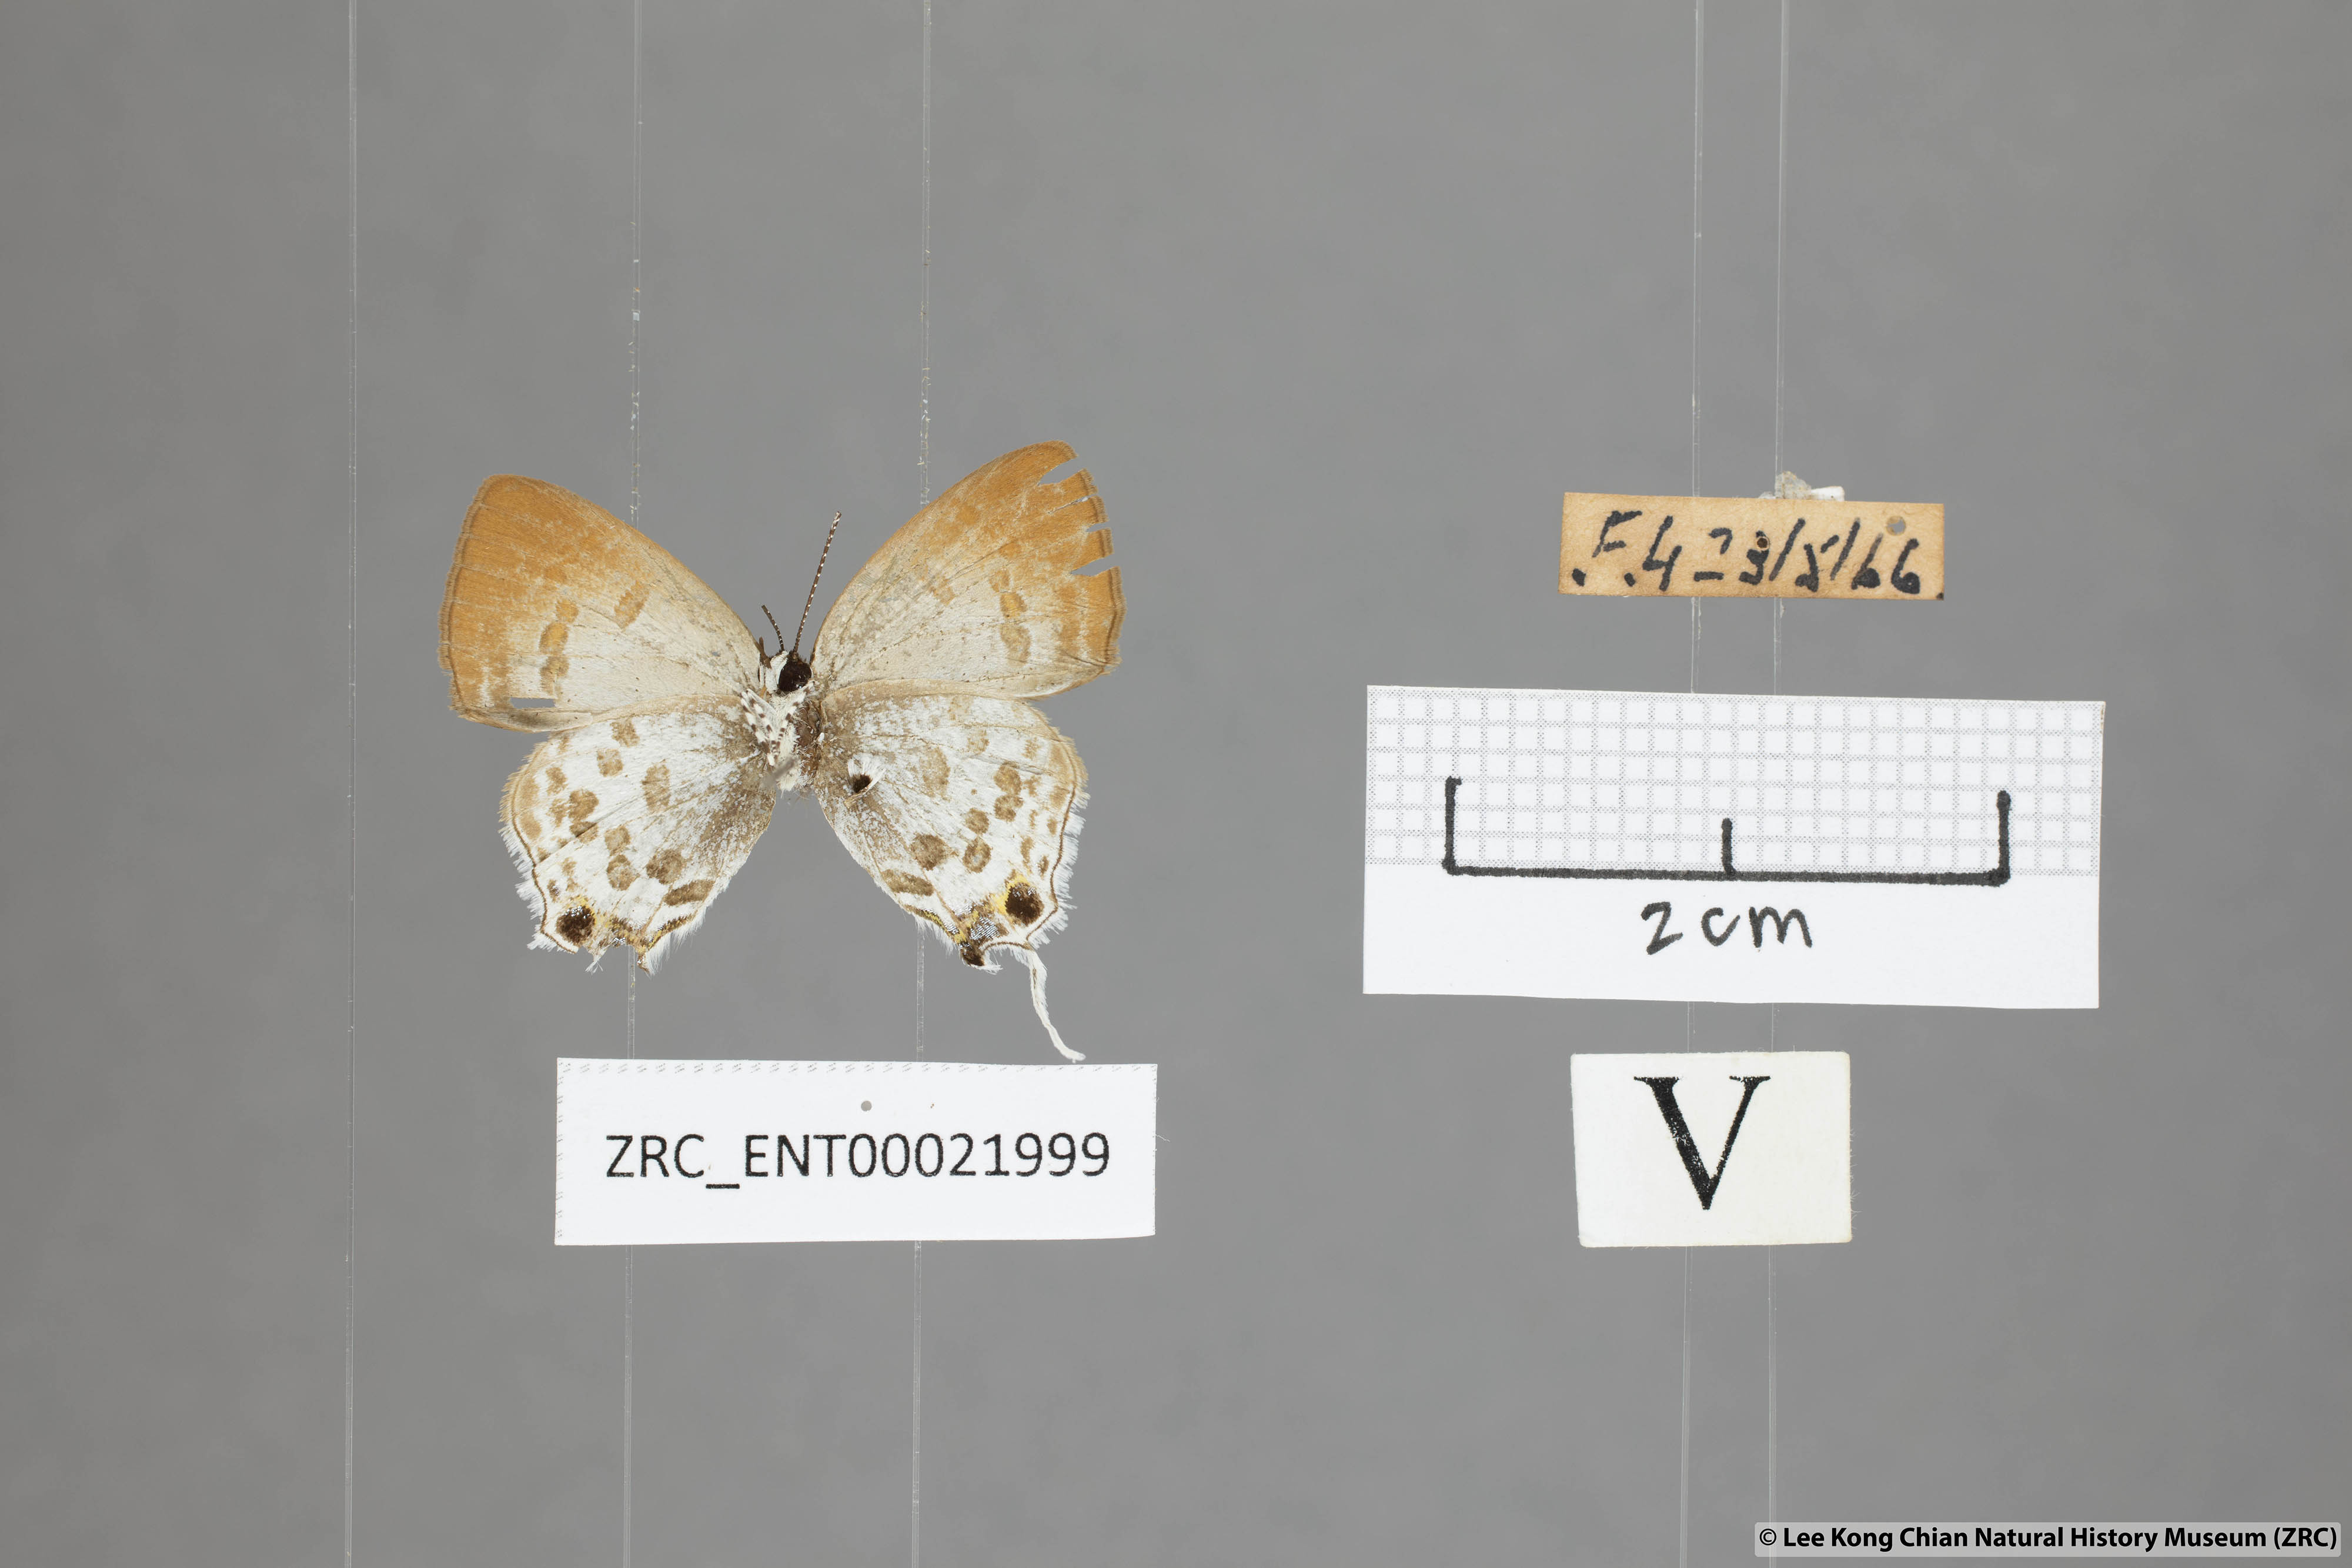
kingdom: Animalia
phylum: Arthropoda
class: Insecta
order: Lepidoptera
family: Lycaenidae
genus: Sinthusa
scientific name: Sinthusa malika
